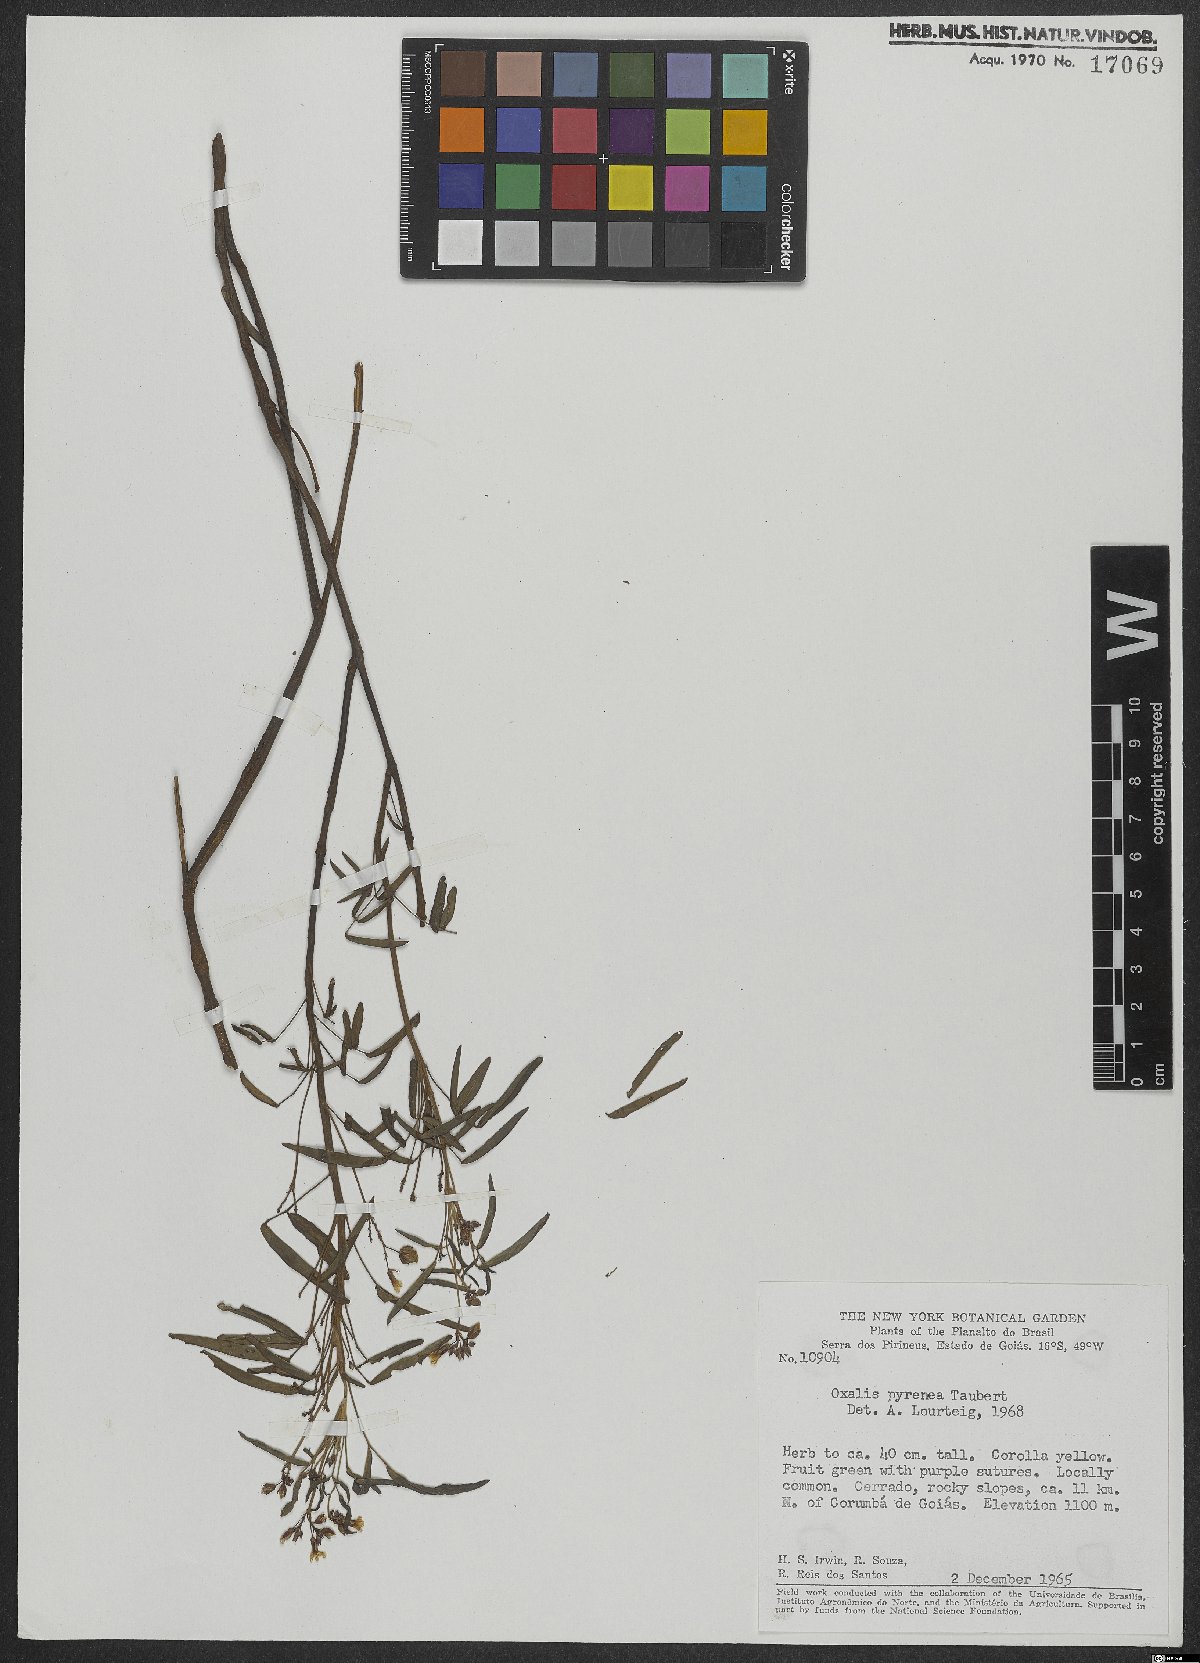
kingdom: Plantae
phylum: Tracheophyta
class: Magnoliopsida
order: Oxalidales
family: Oxalidaceae
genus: Oxalis
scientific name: Oxalis pyrenea
